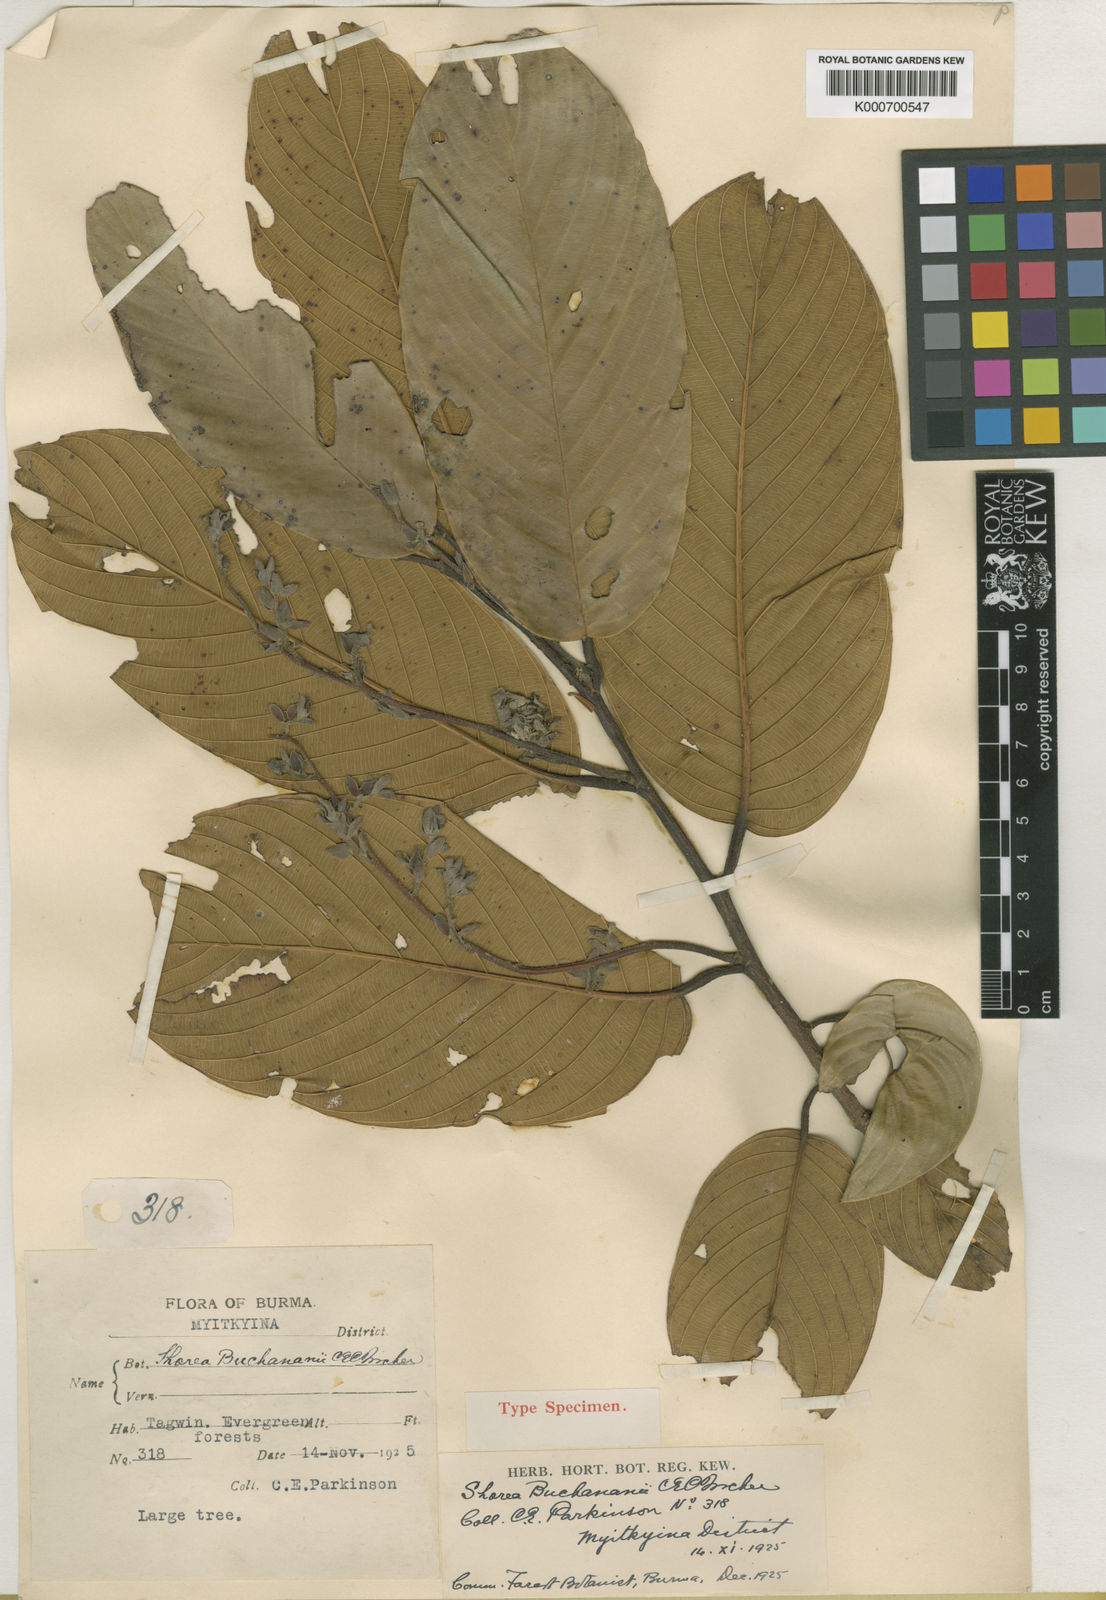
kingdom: Plantae
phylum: Tracheophyta
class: Magnoliopsida
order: Malvales
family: Dipterocarpaceae
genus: Parashorea
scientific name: Parashorea buchananii
